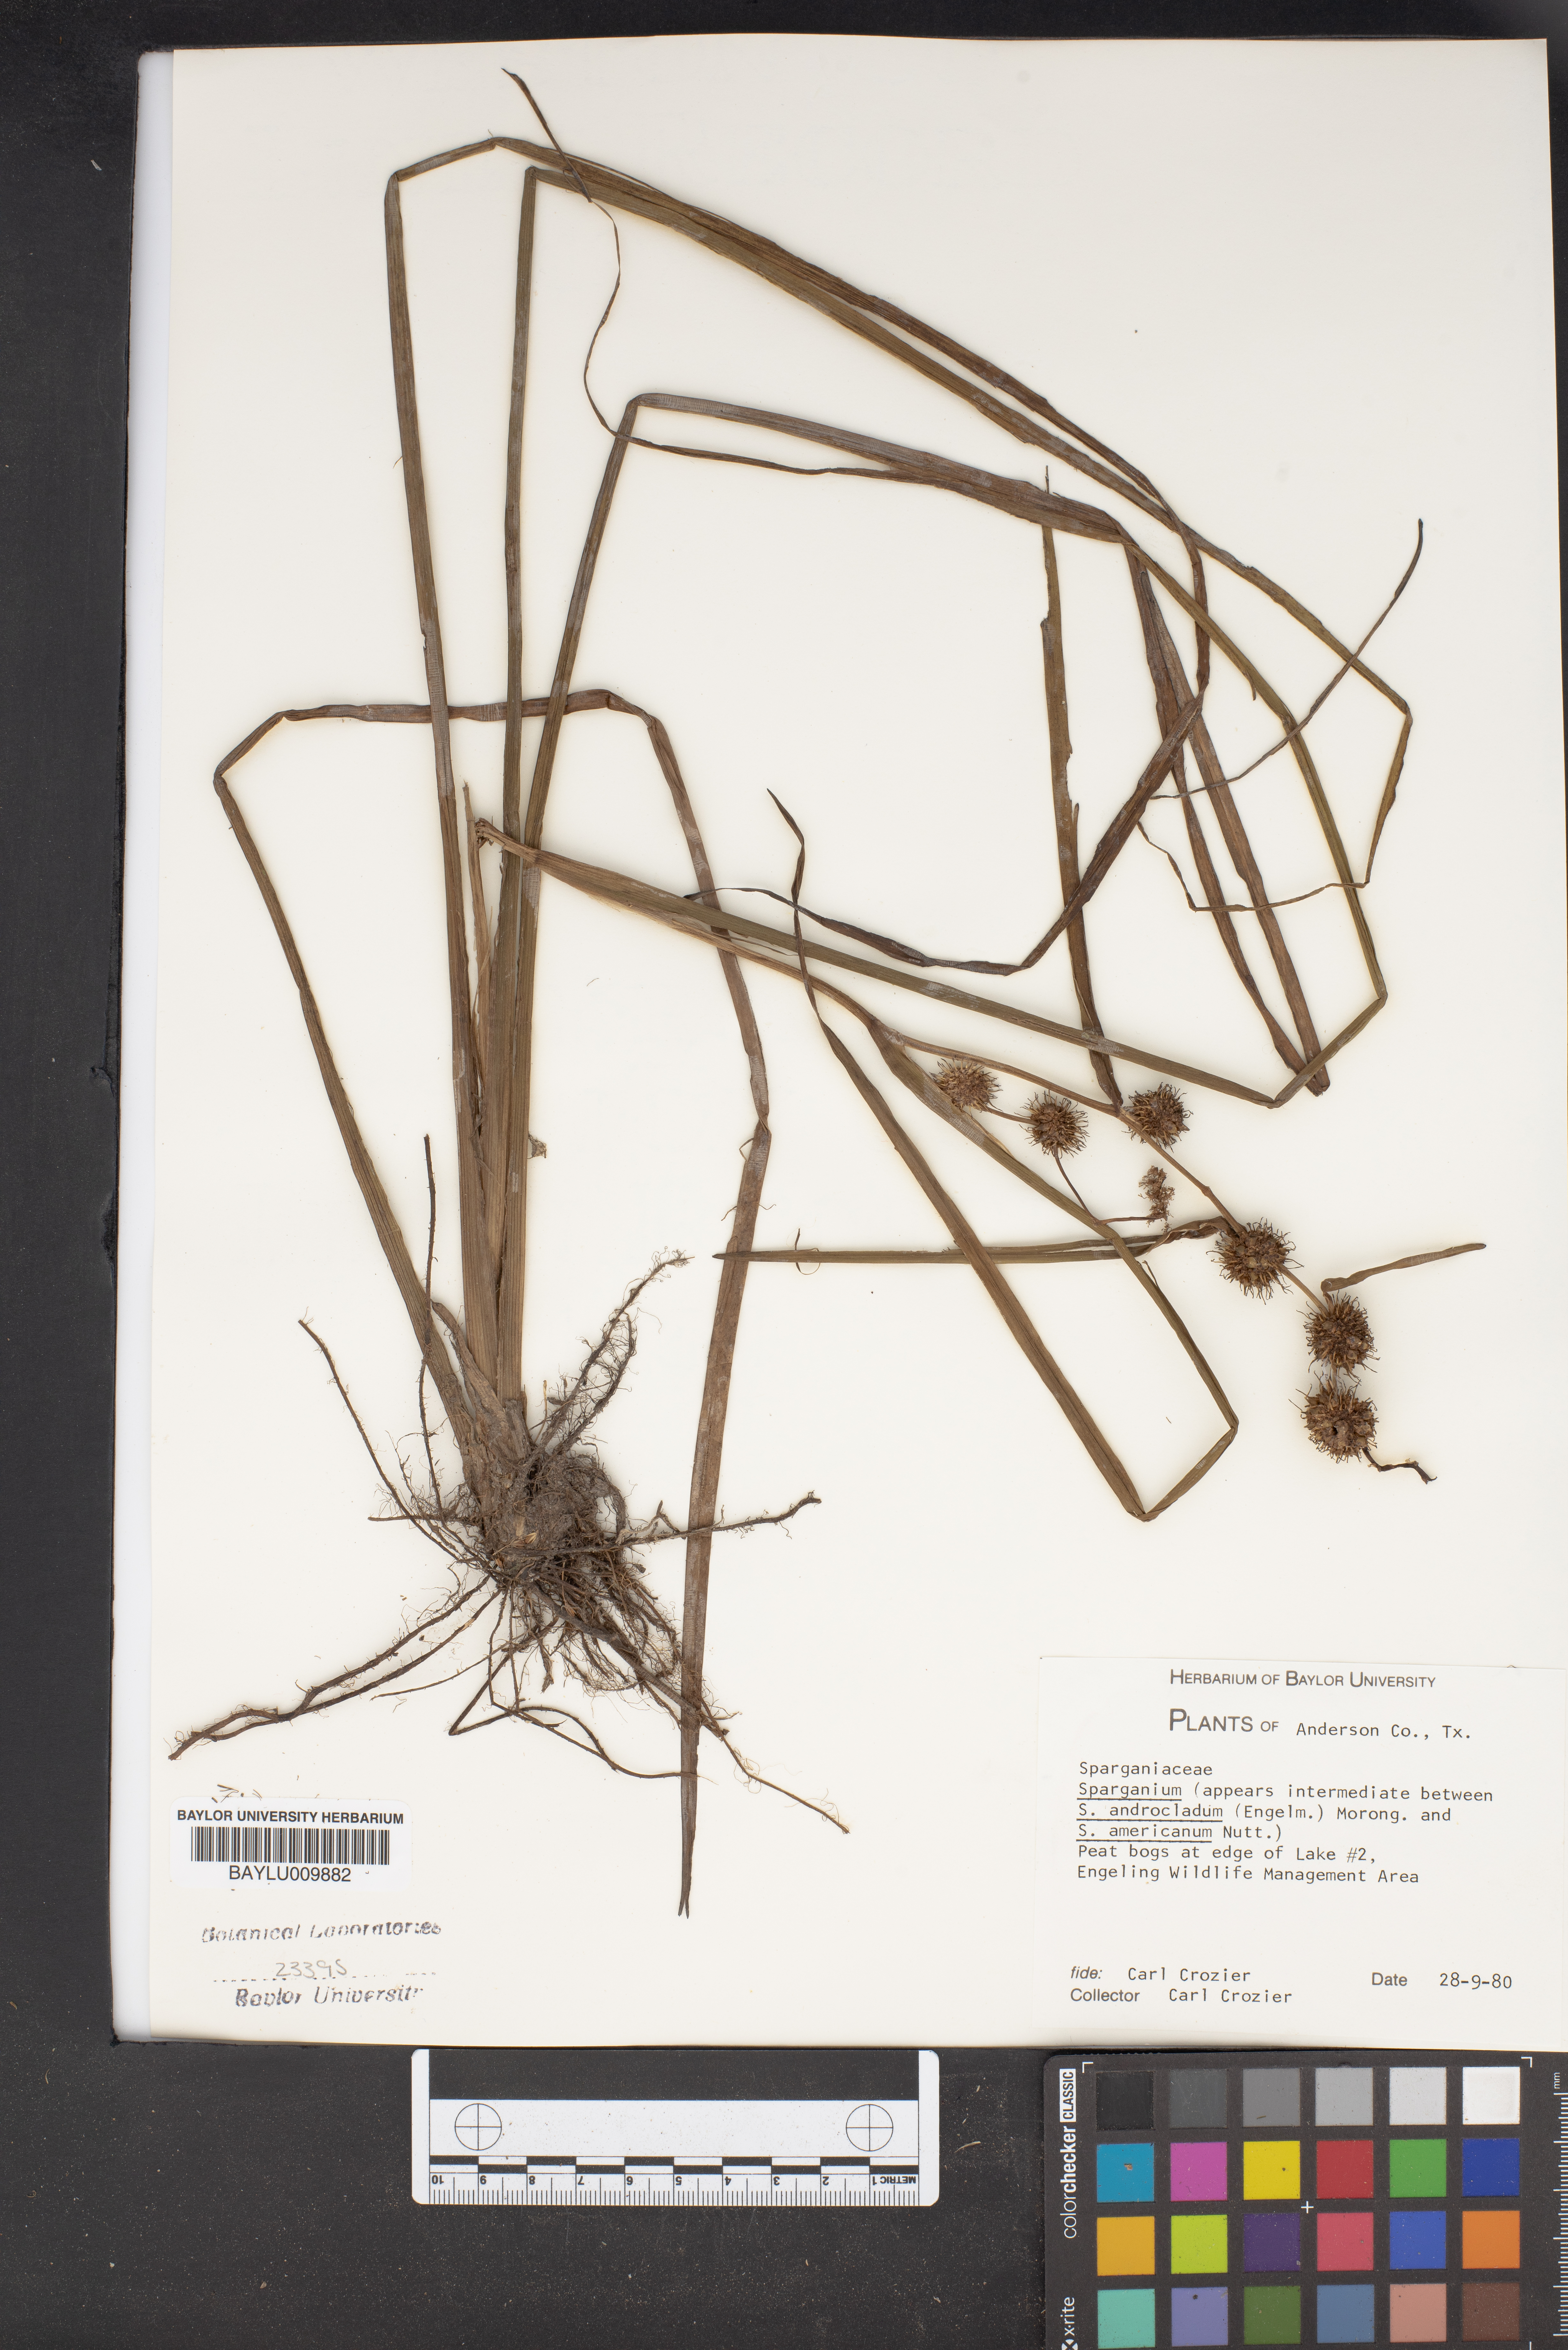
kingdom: Plantae
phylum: Tracheophyta
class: Liliopsida
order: Poales
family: Typhaceae
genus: Sparganium
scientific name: Sparganium
